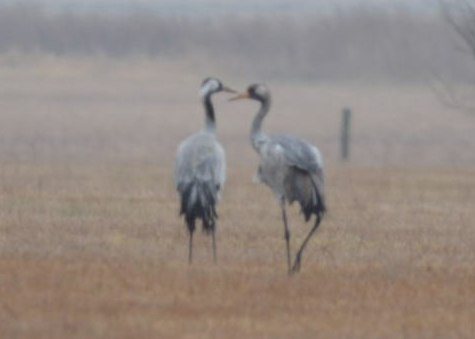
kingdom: Animalia
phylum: Chordata
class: Aves
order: Gruiformes
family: Gruidae
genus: Grus
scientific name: Grus grus
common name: Common crane
